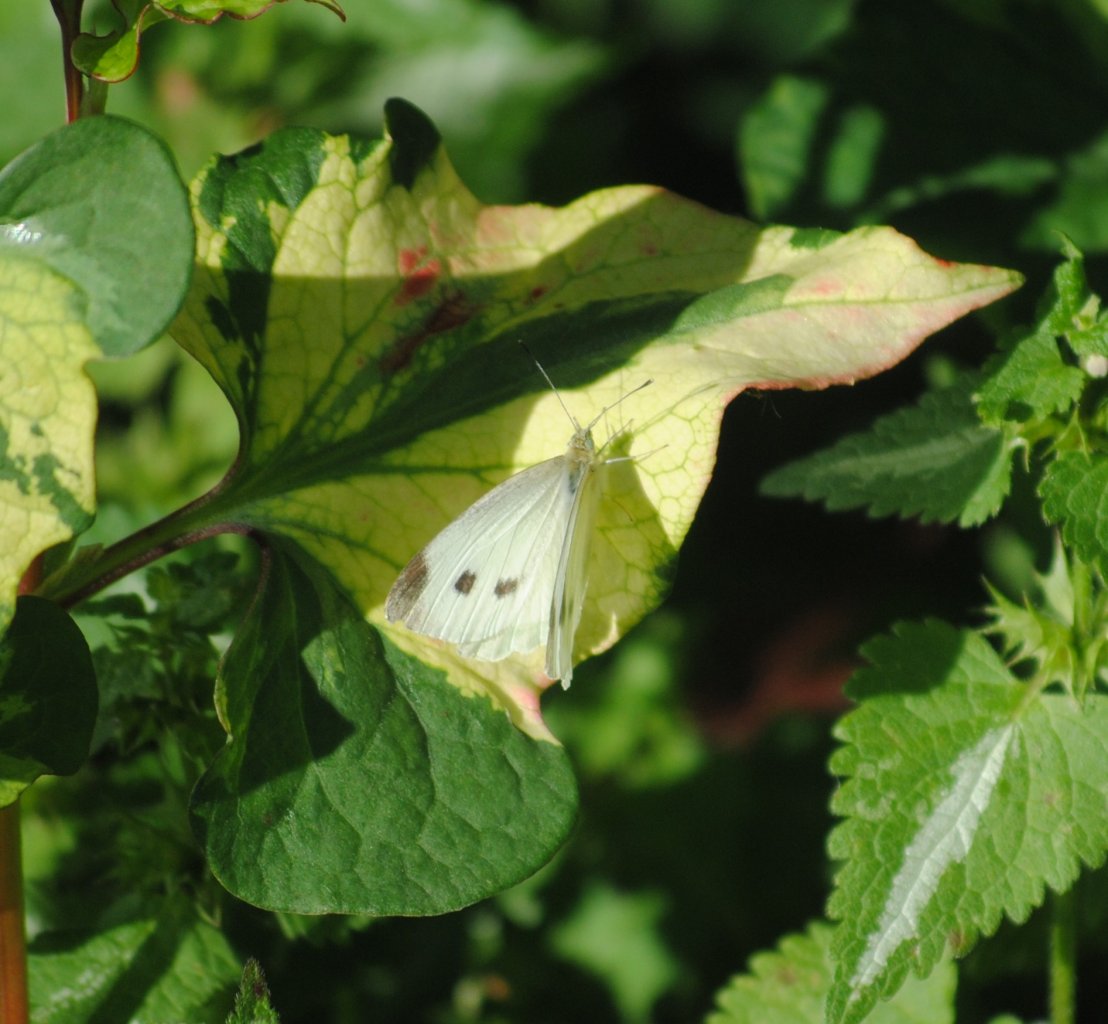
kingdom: Animalia
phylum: Arthropoda
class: Insecta
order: Lepidoptera
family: Pieridae
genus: Pieris
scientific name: Pieris rapae
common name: Cabbage White
